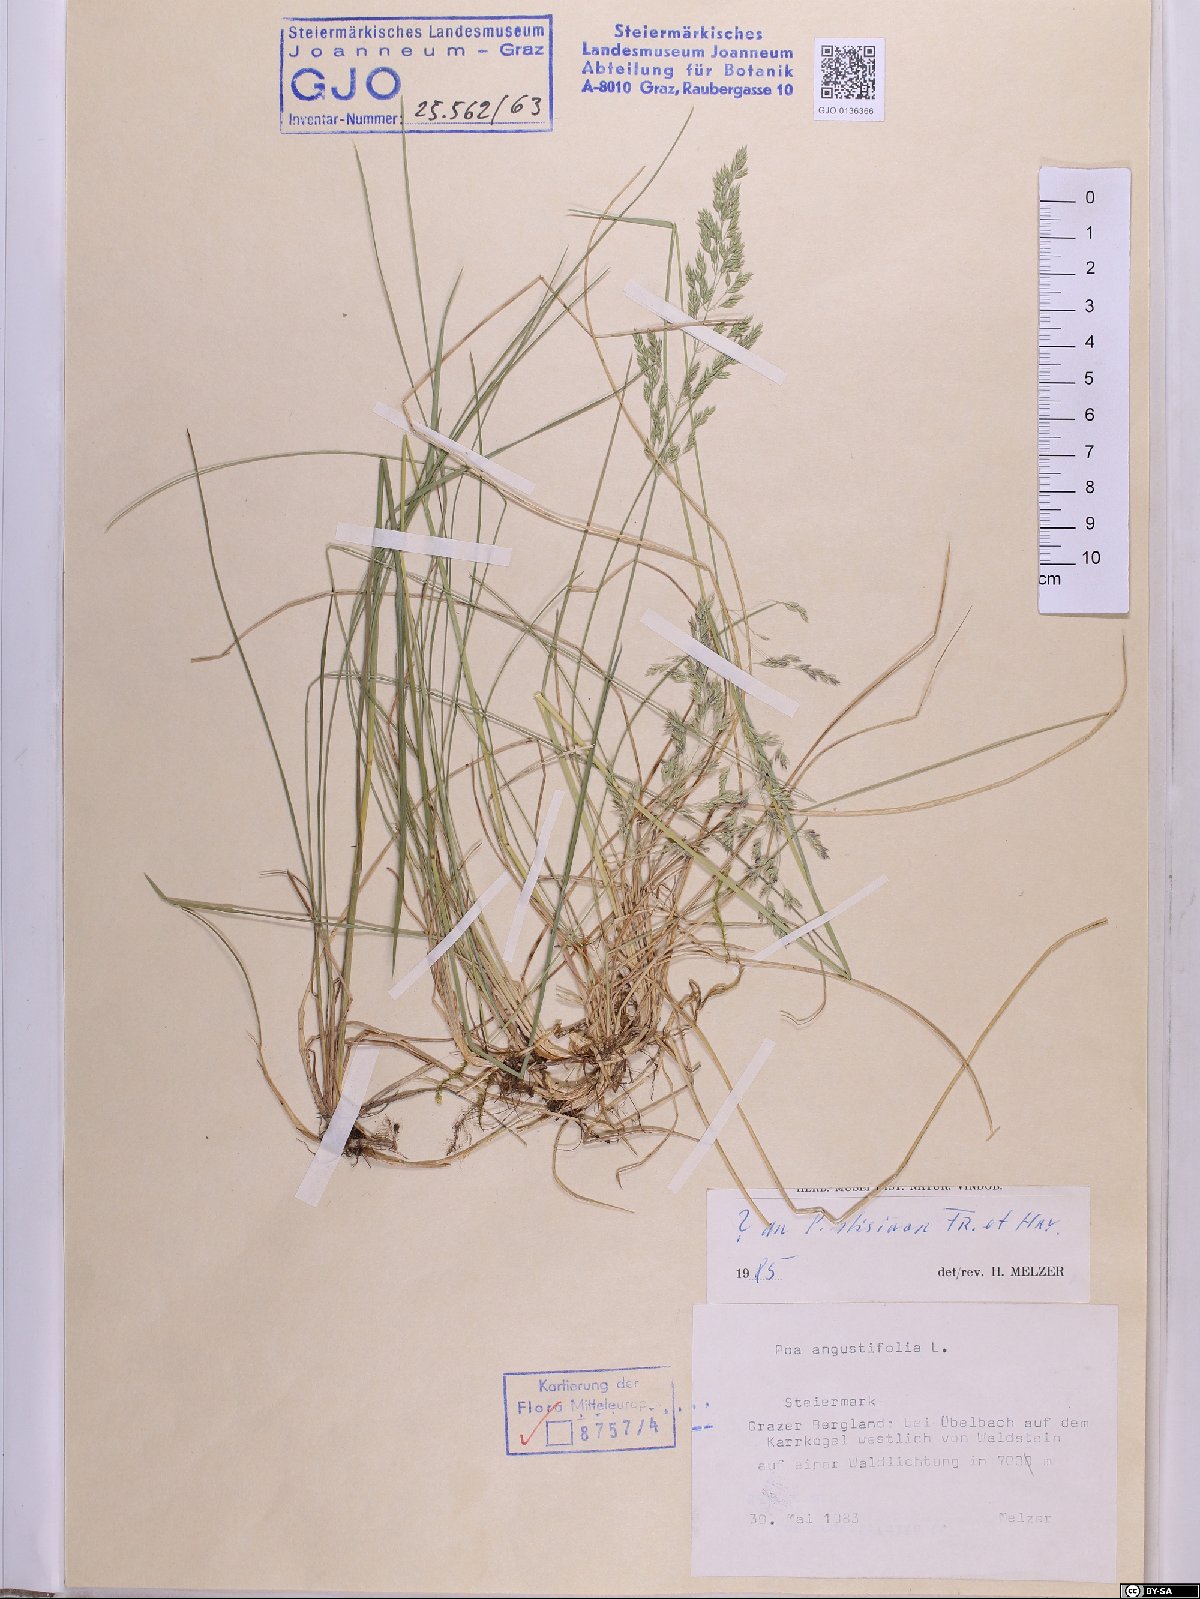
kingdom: Plantae
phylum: Tracheophyta
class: Liliopsida
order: Poales
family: Poaceae
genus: Poa
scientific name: Poa stiriaca
